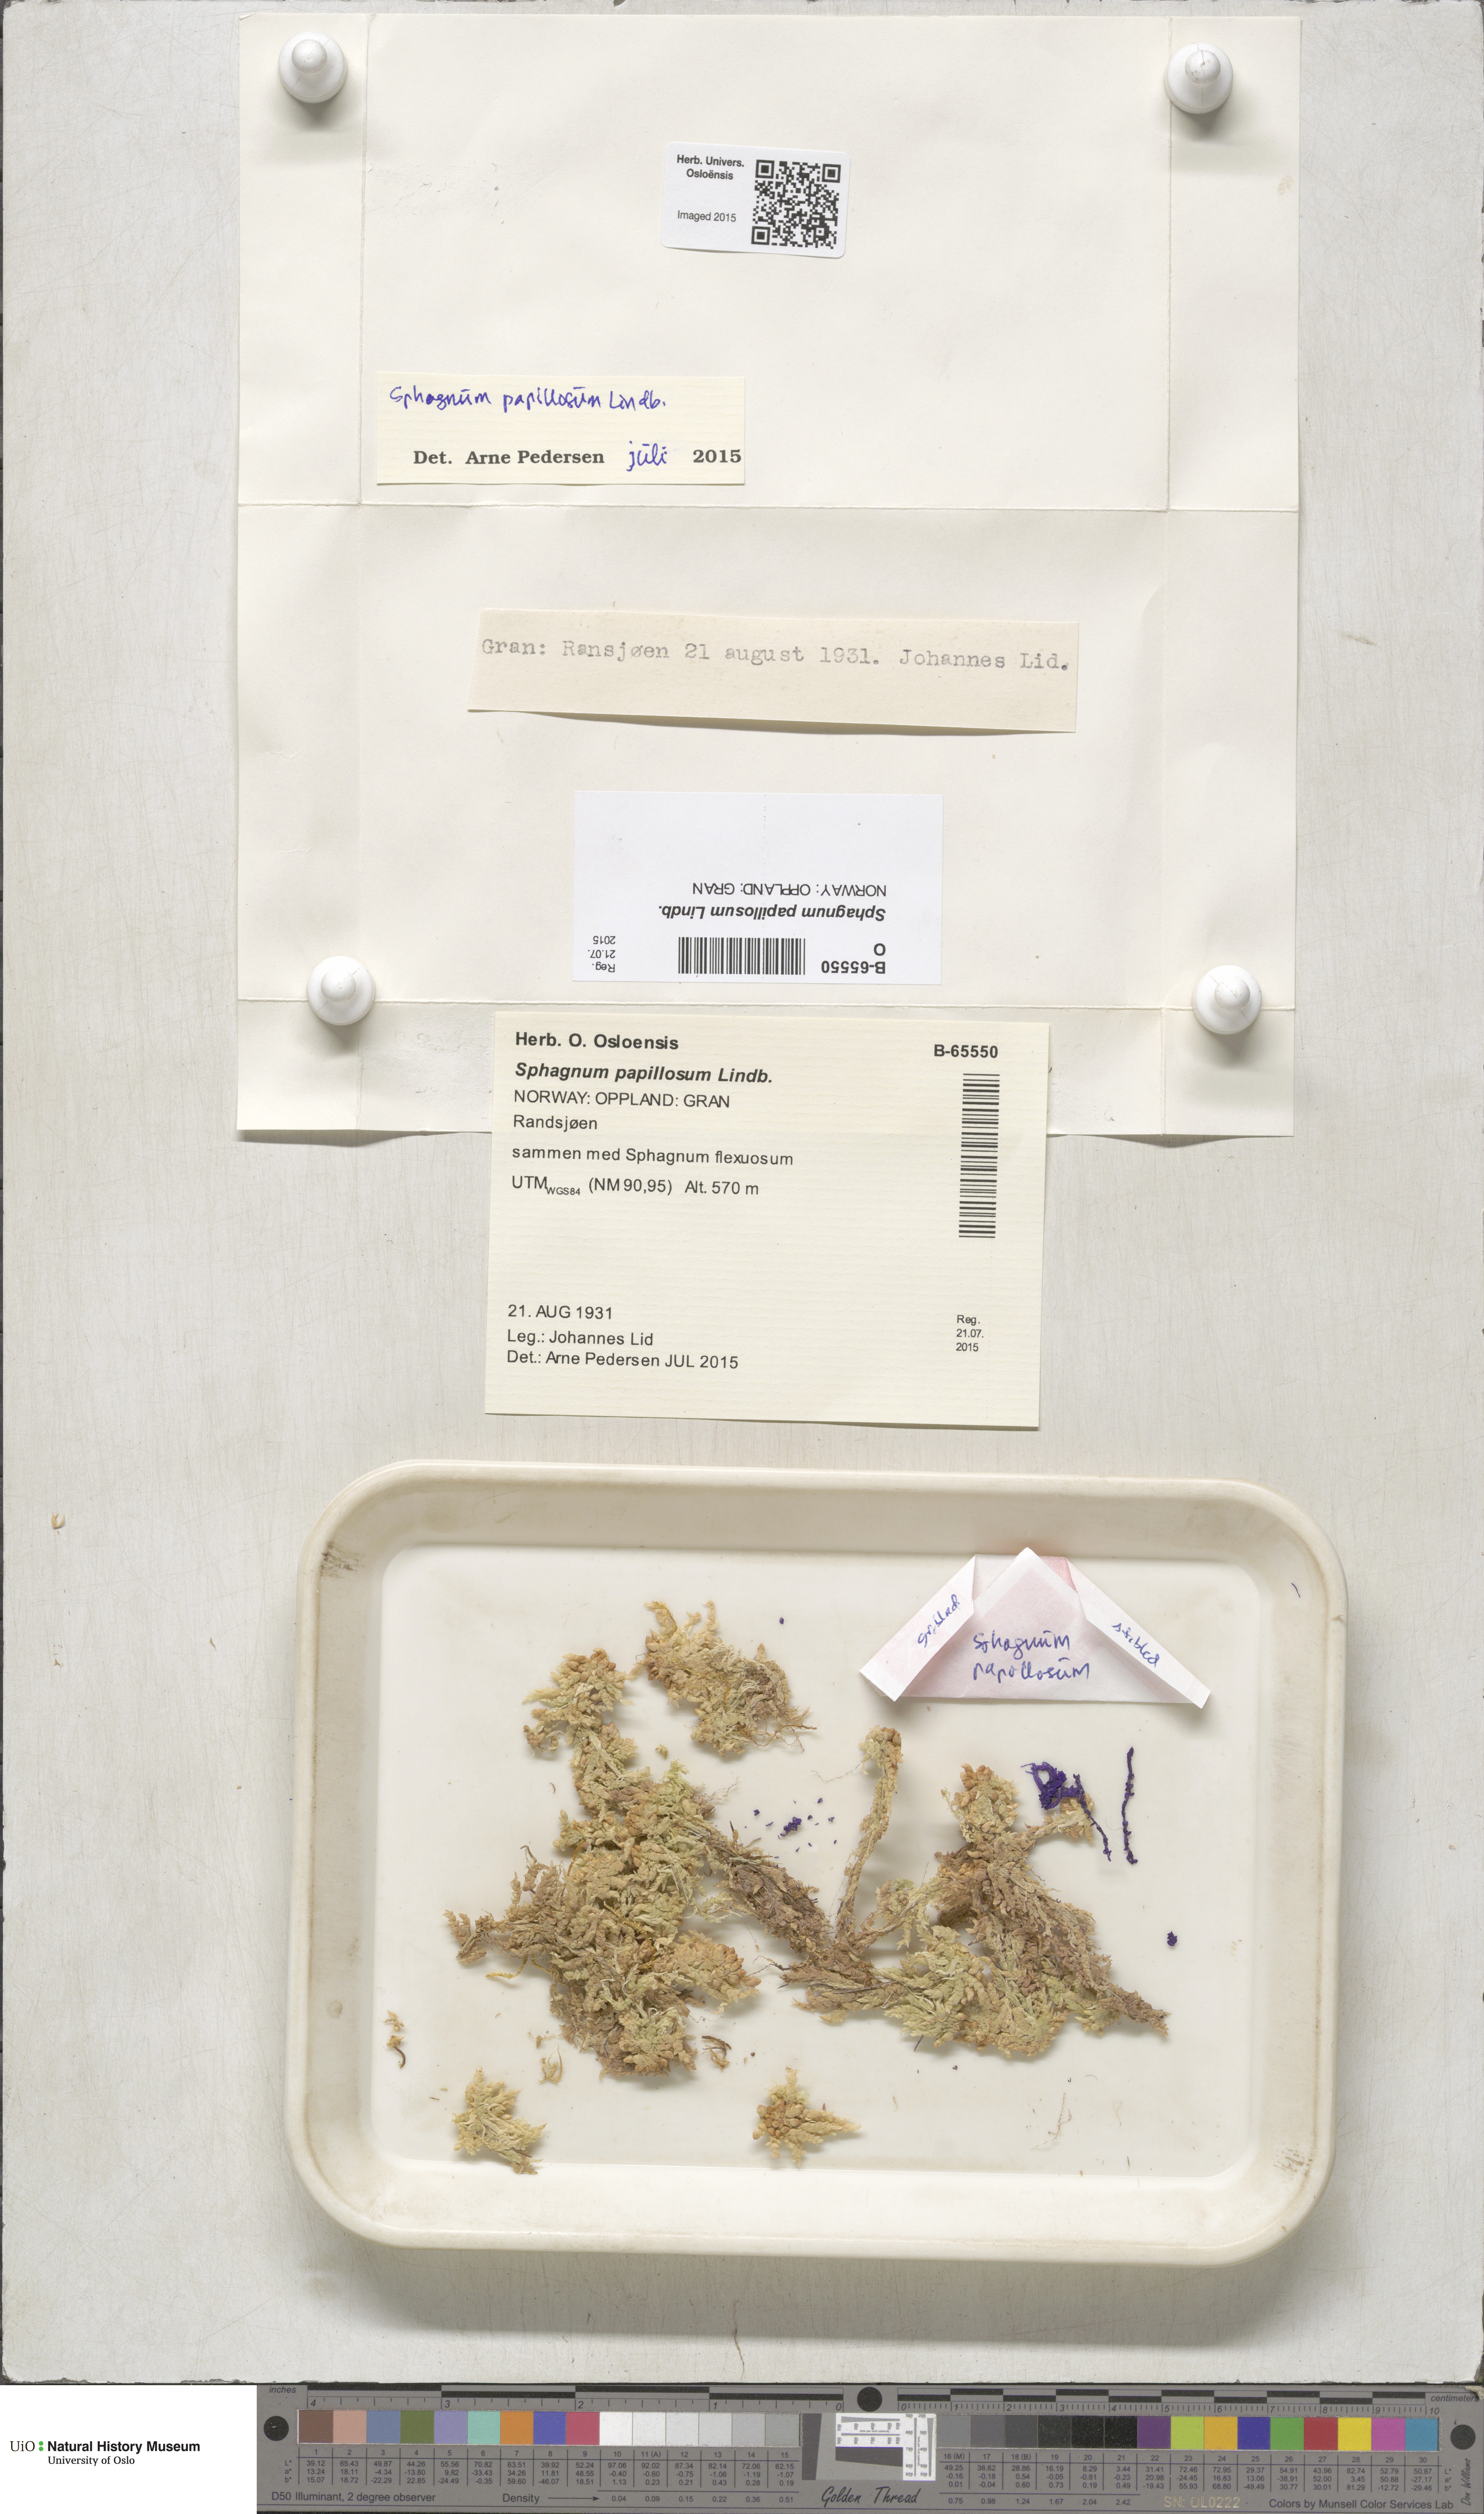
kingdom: Plantae
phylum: Bryophyta
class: Sphagnopsida
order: Sphagnales
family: Sphagnaceae
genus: Sphagnum
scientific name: Sphagnum papillosum
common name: Papillose peat moss
